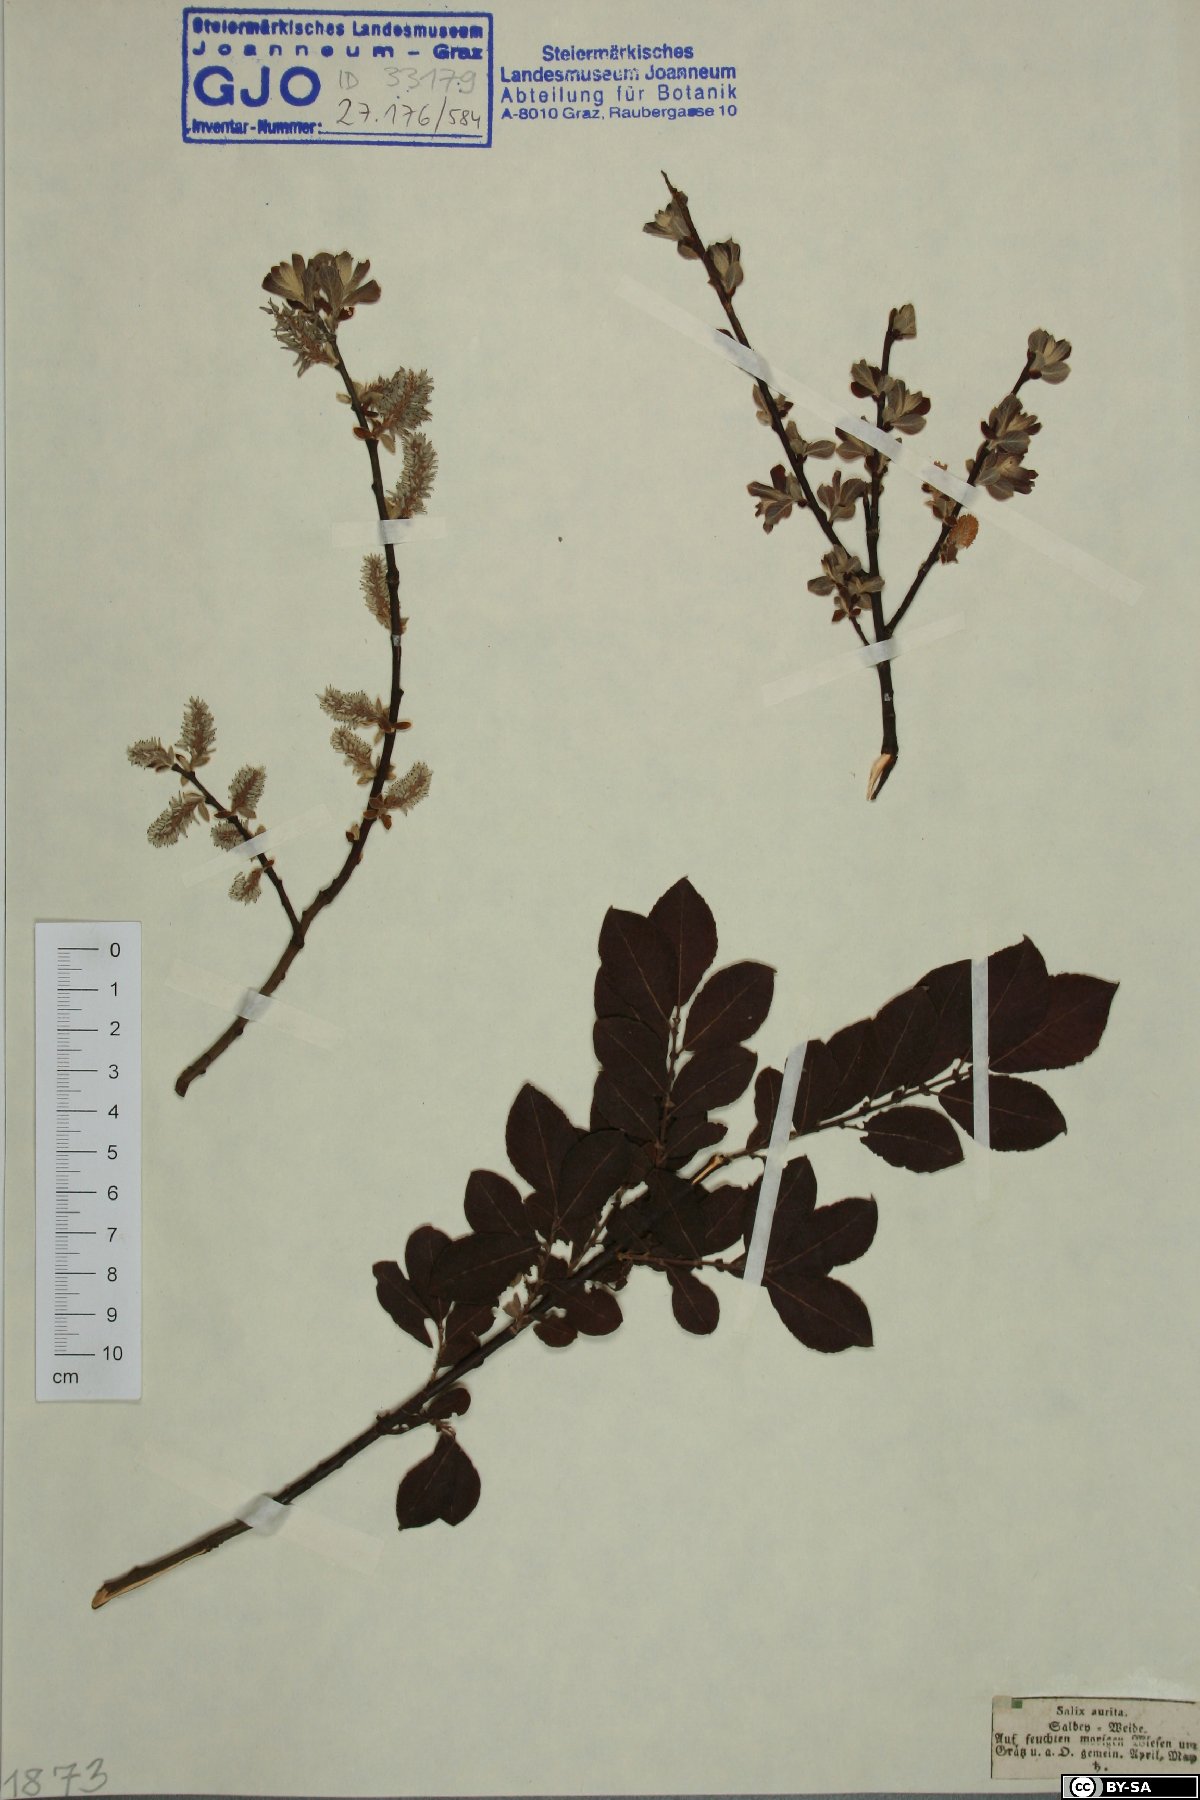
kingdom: Plantae
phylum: Tracheophyta
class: Magnoliopsida
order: Malpighiales
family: Salicaceae
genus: Salix
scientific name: Salix aurita
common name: Eared willow
